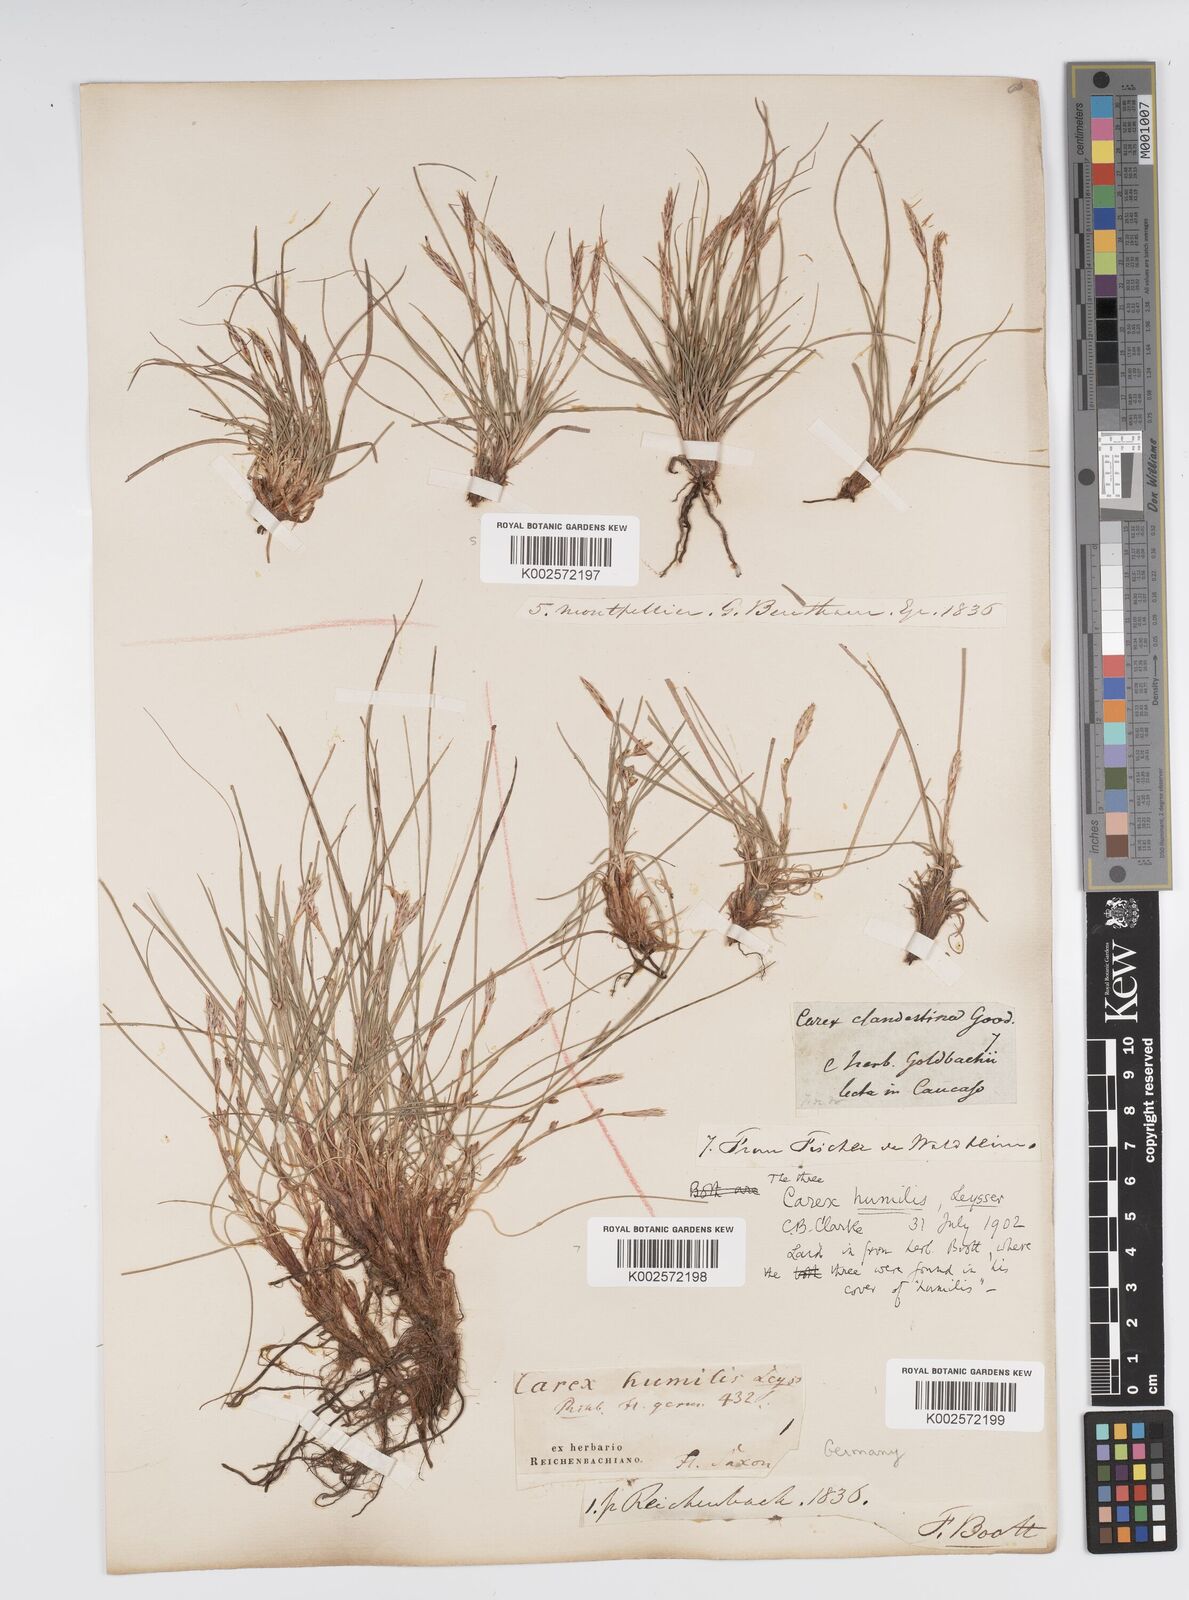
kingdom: Plantae
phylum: Tracheophyta
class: Liliopsida
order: Poales
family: Cyperaceae
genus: Carex
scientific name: Carex humilis
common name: Dwarf sedge
